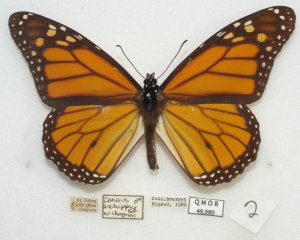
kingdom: Animalia
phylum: Arthropoda
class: Insecta
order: Lepidoptera
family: Nymphalidae
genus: Danaus
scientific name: Danaus plexippus
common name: Monarch
